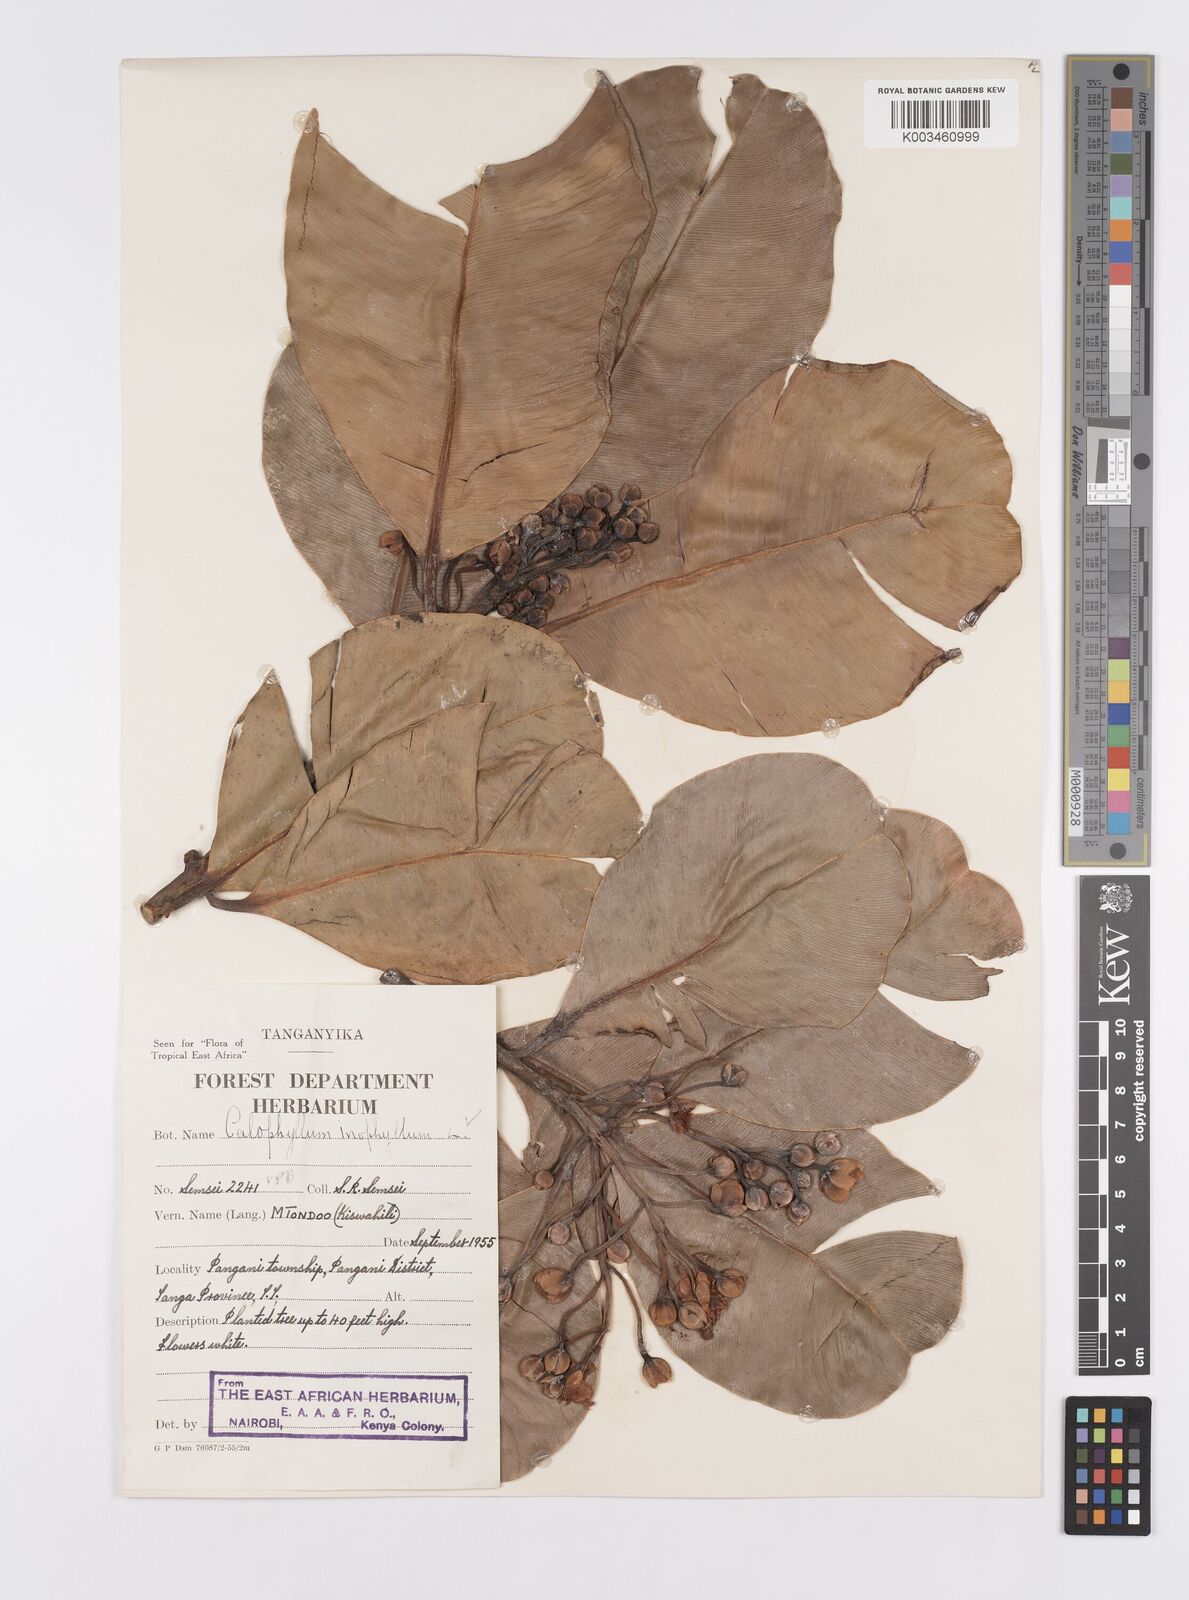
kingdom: Plantae
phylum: Tracheophyta
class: Magnoliopsida
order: Malpighiales
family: Calophyllaceae
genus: Calophyllum
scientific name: Calophyllum inophyllum
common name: Alexandrian laurel
